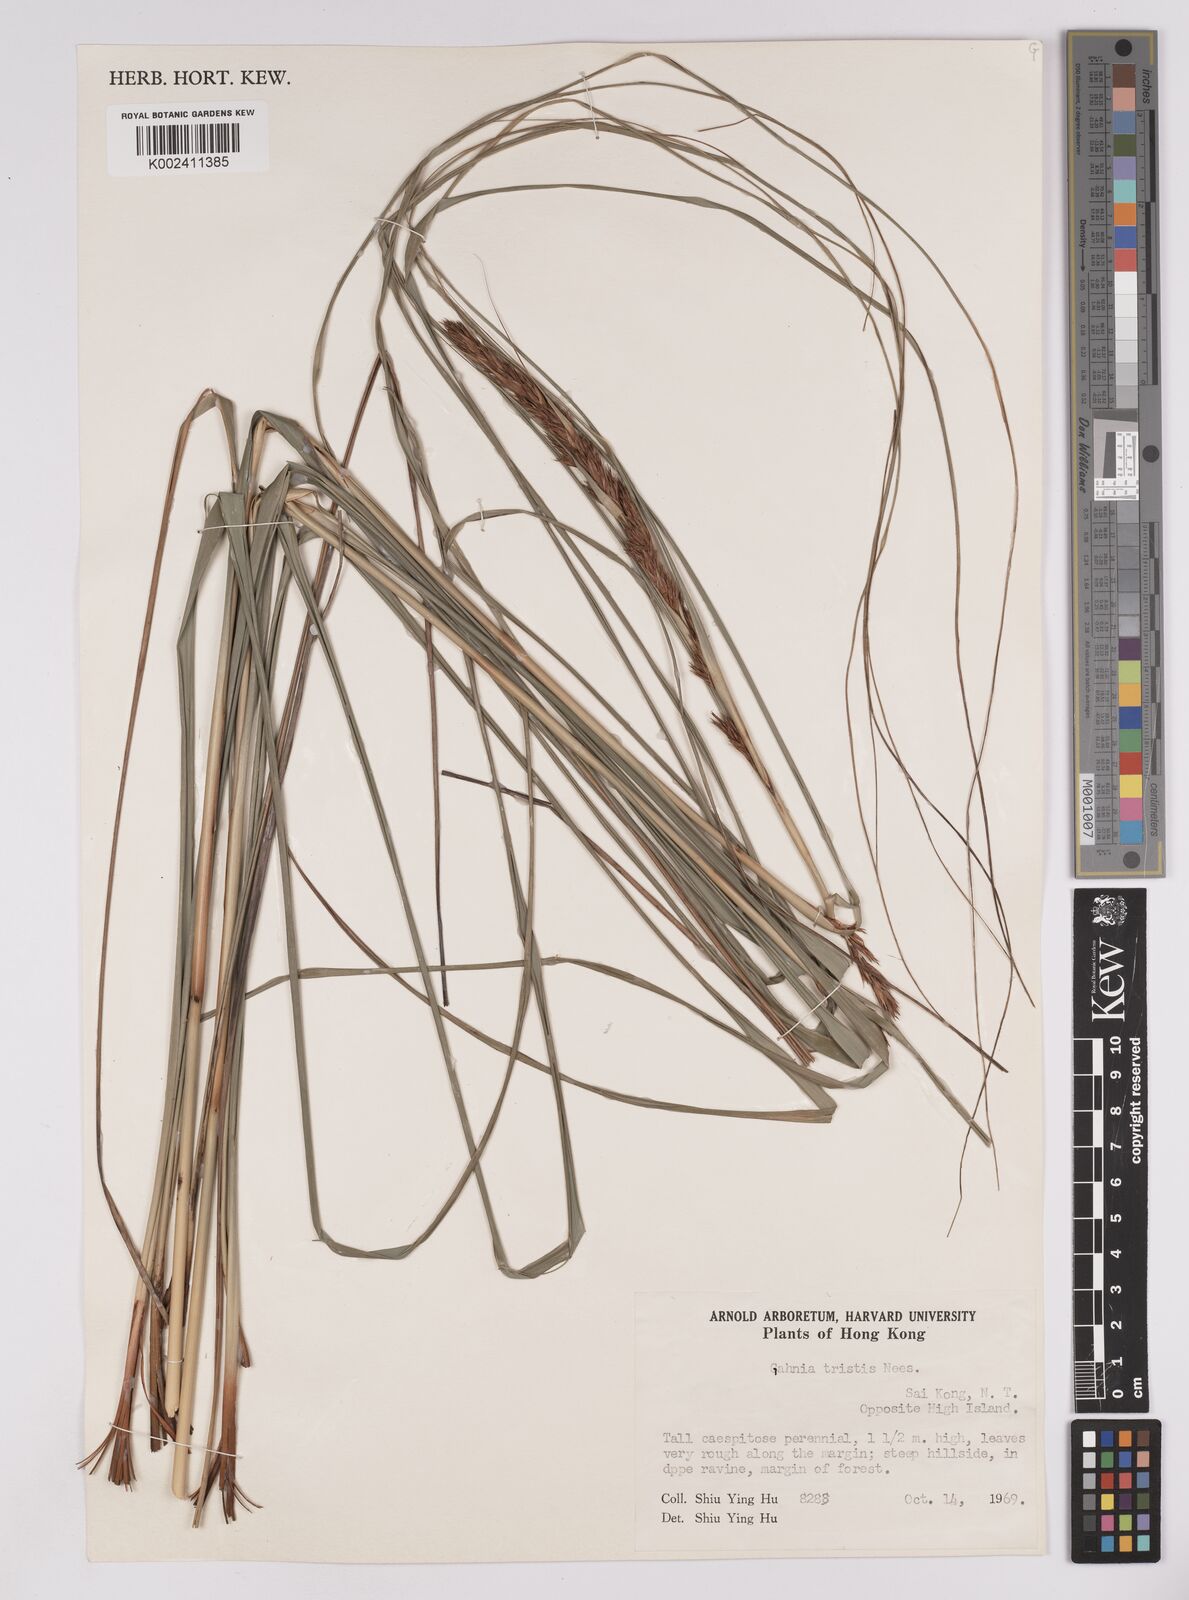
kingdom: Plantae
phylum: Tracheophyta
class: Liliopsida
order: Poales
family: Cyperaceae
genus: Gahnia
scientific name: Gahnia tristis
